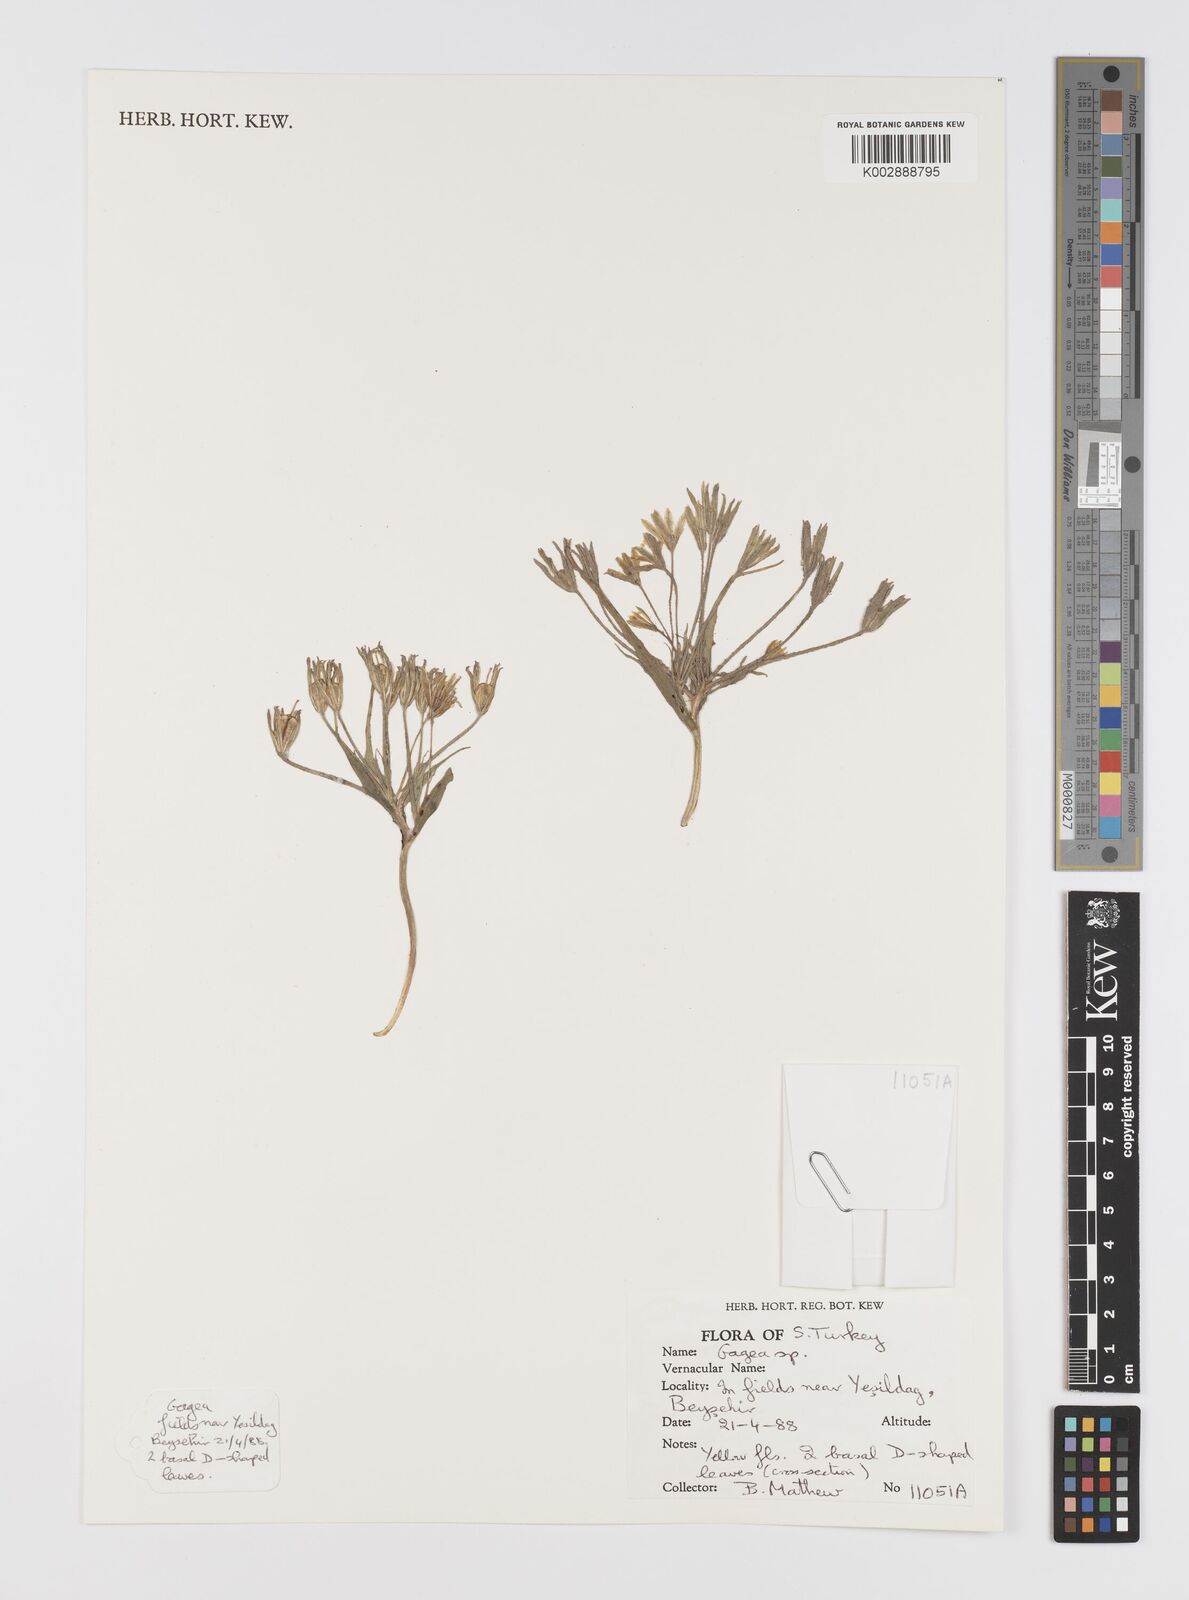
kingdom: Plantae
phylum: Tracheophyta
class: Liliopsida
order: Liliales
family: Liliaceae
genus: Gagea
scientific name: Gagea
